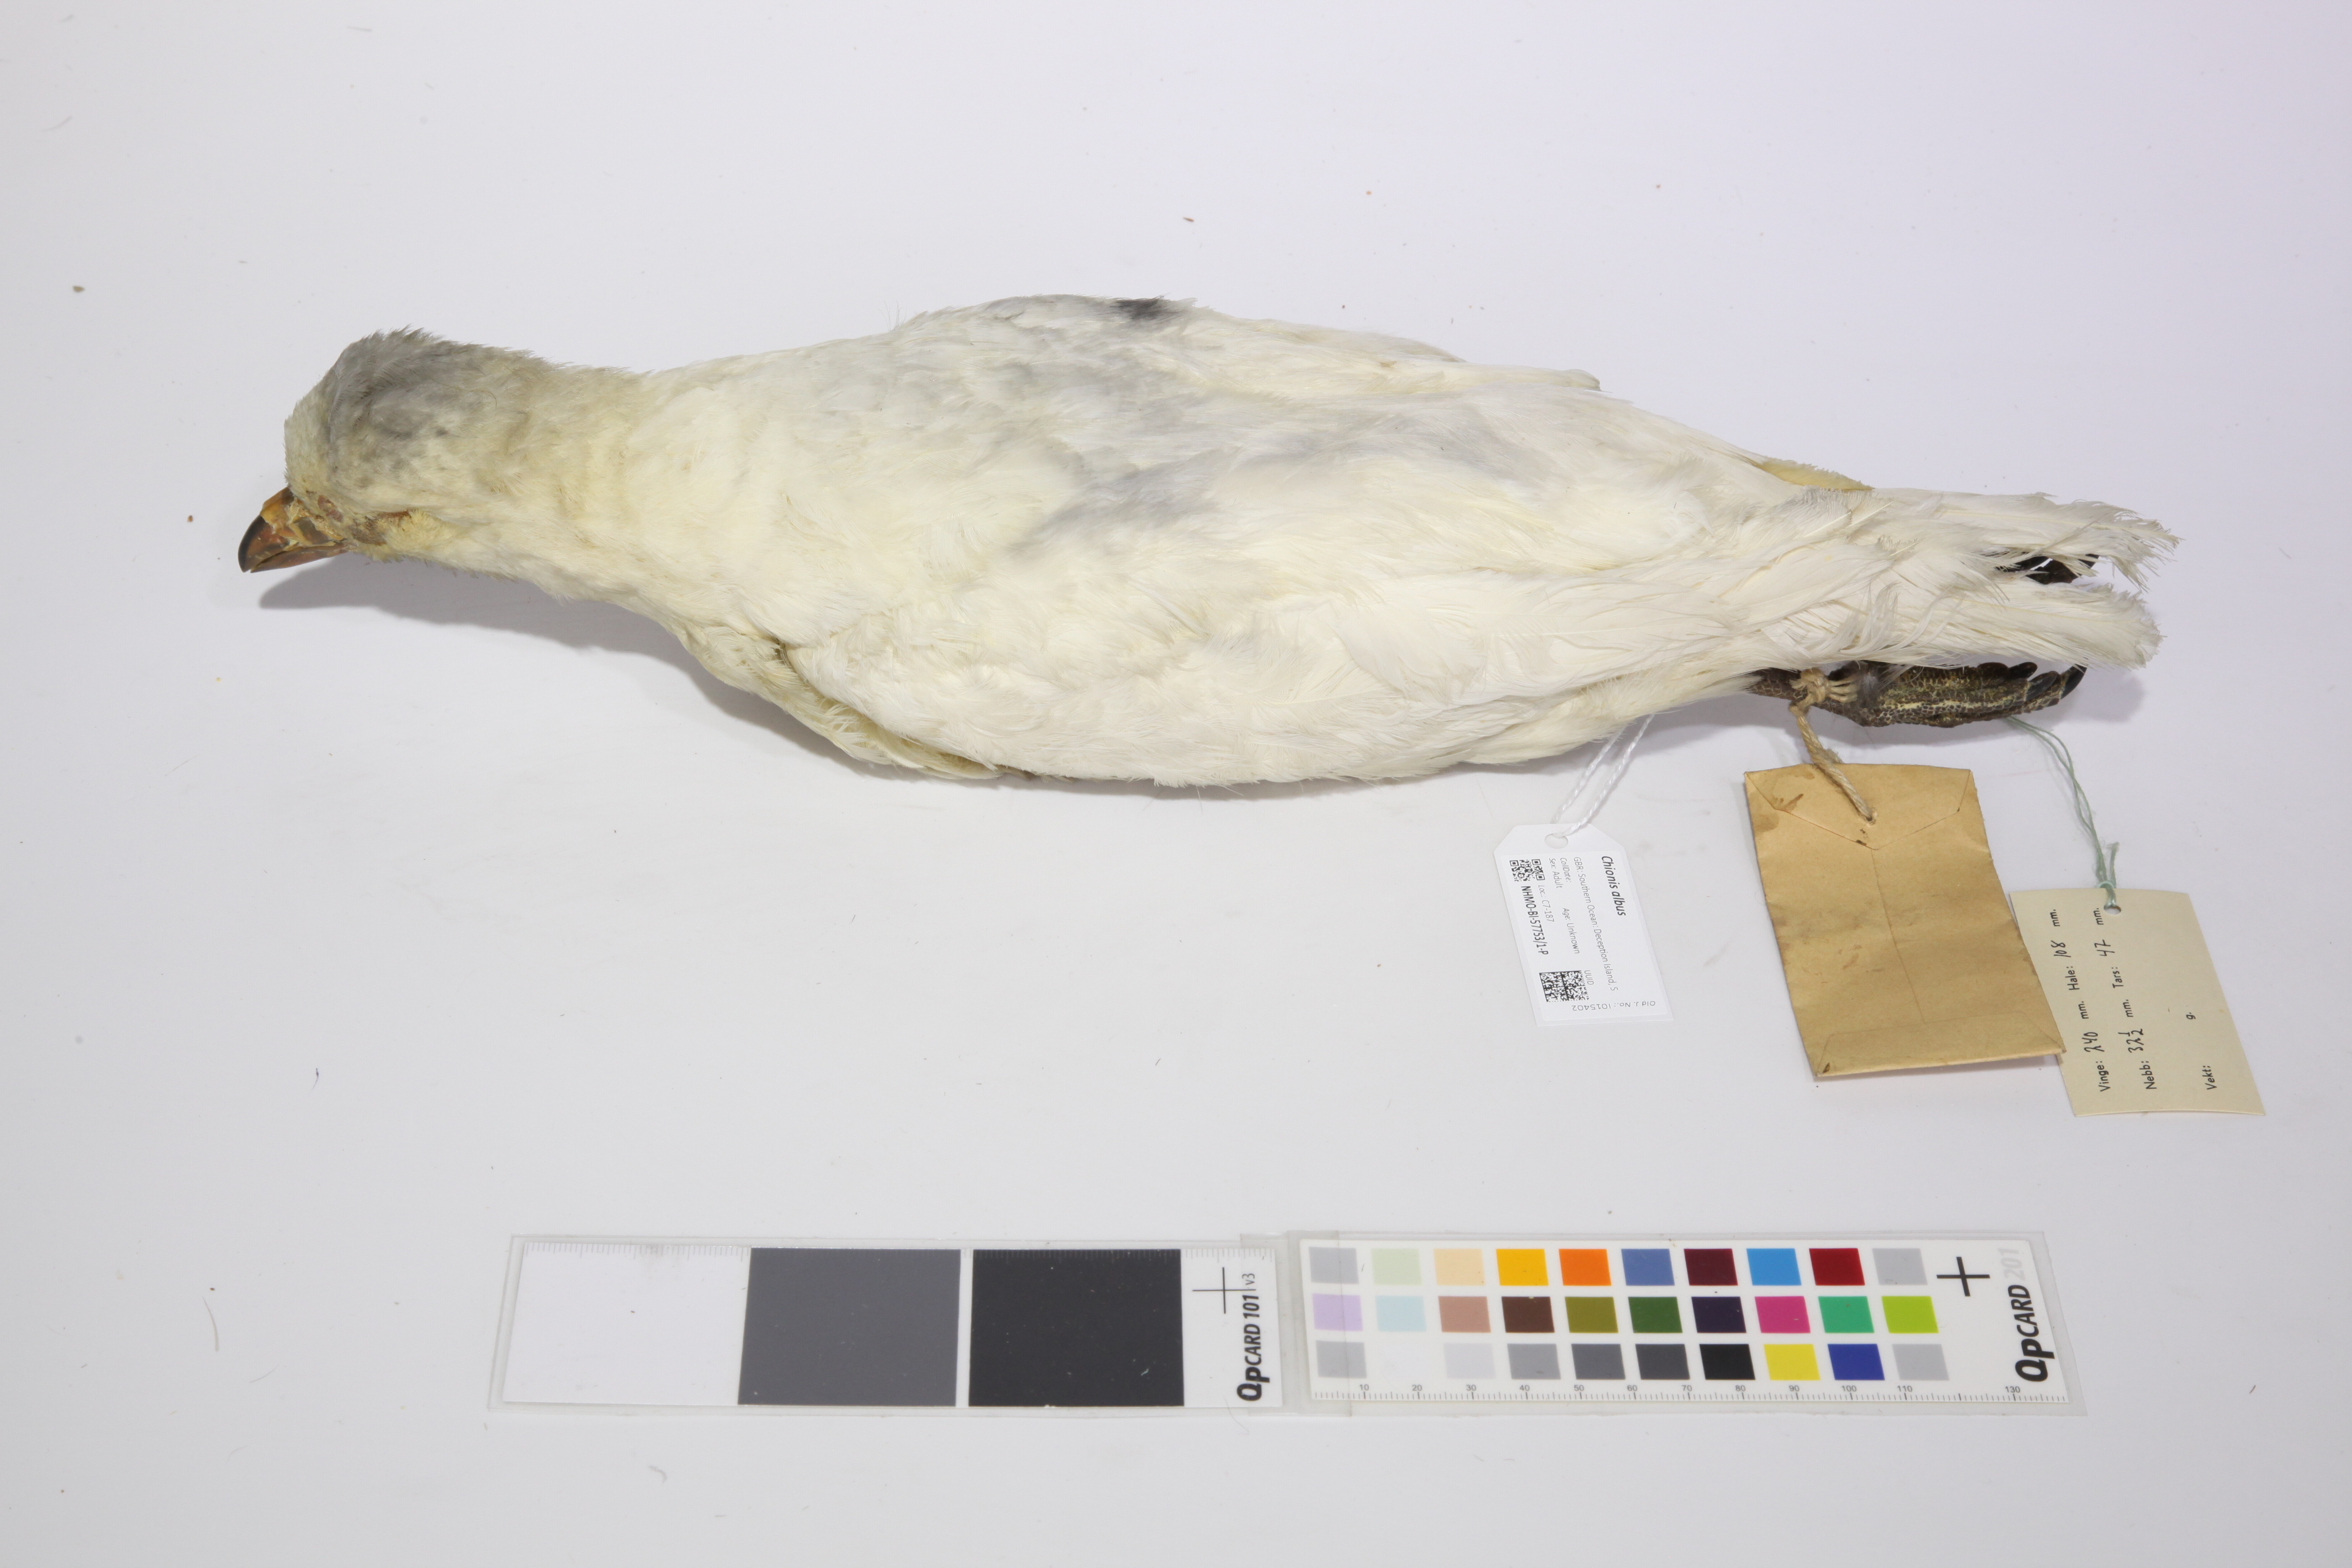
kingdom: Animalia
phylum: Chordata
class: Aves
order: Charadriiformes
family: Chionidae
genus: Chionis
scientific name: Chionis albus
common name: Snowy sheathbill
